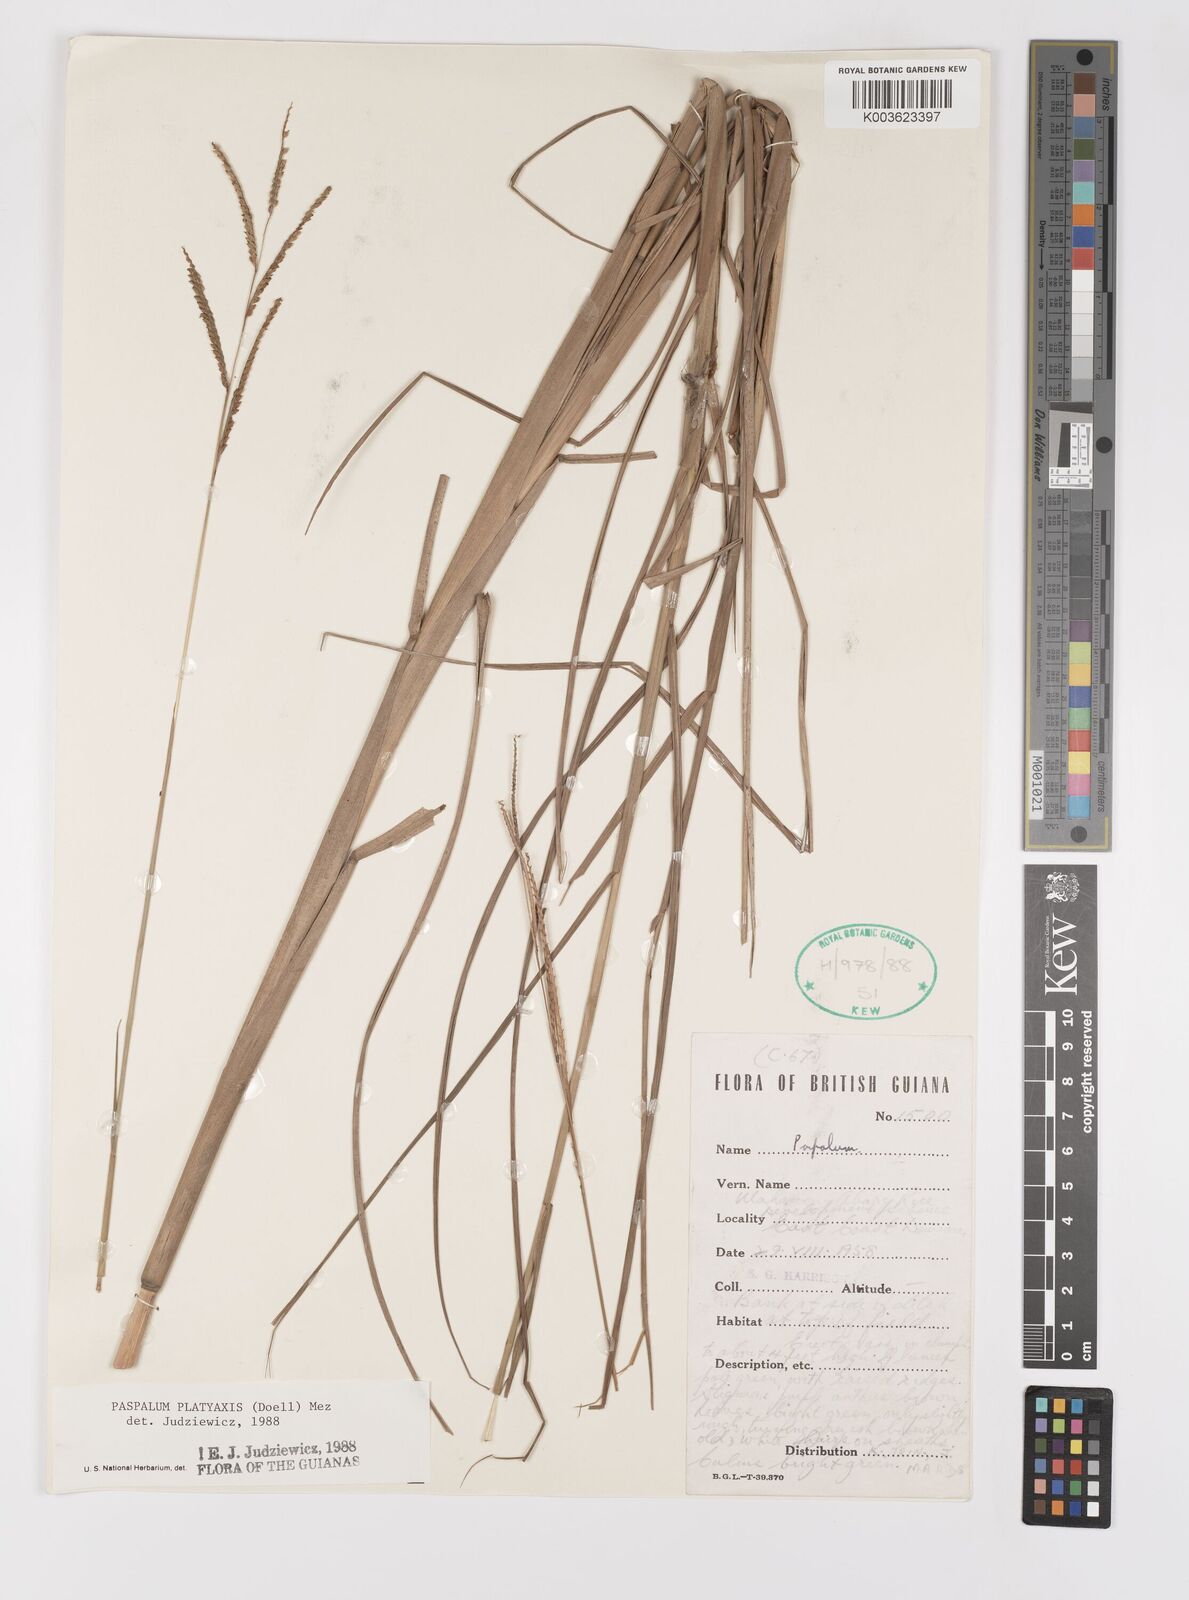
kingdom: Plantae
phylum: Tracheophyta
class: Liliopsida
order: Poales
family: Poaceae
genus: Paspalum
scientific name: Paspalum wrightii
